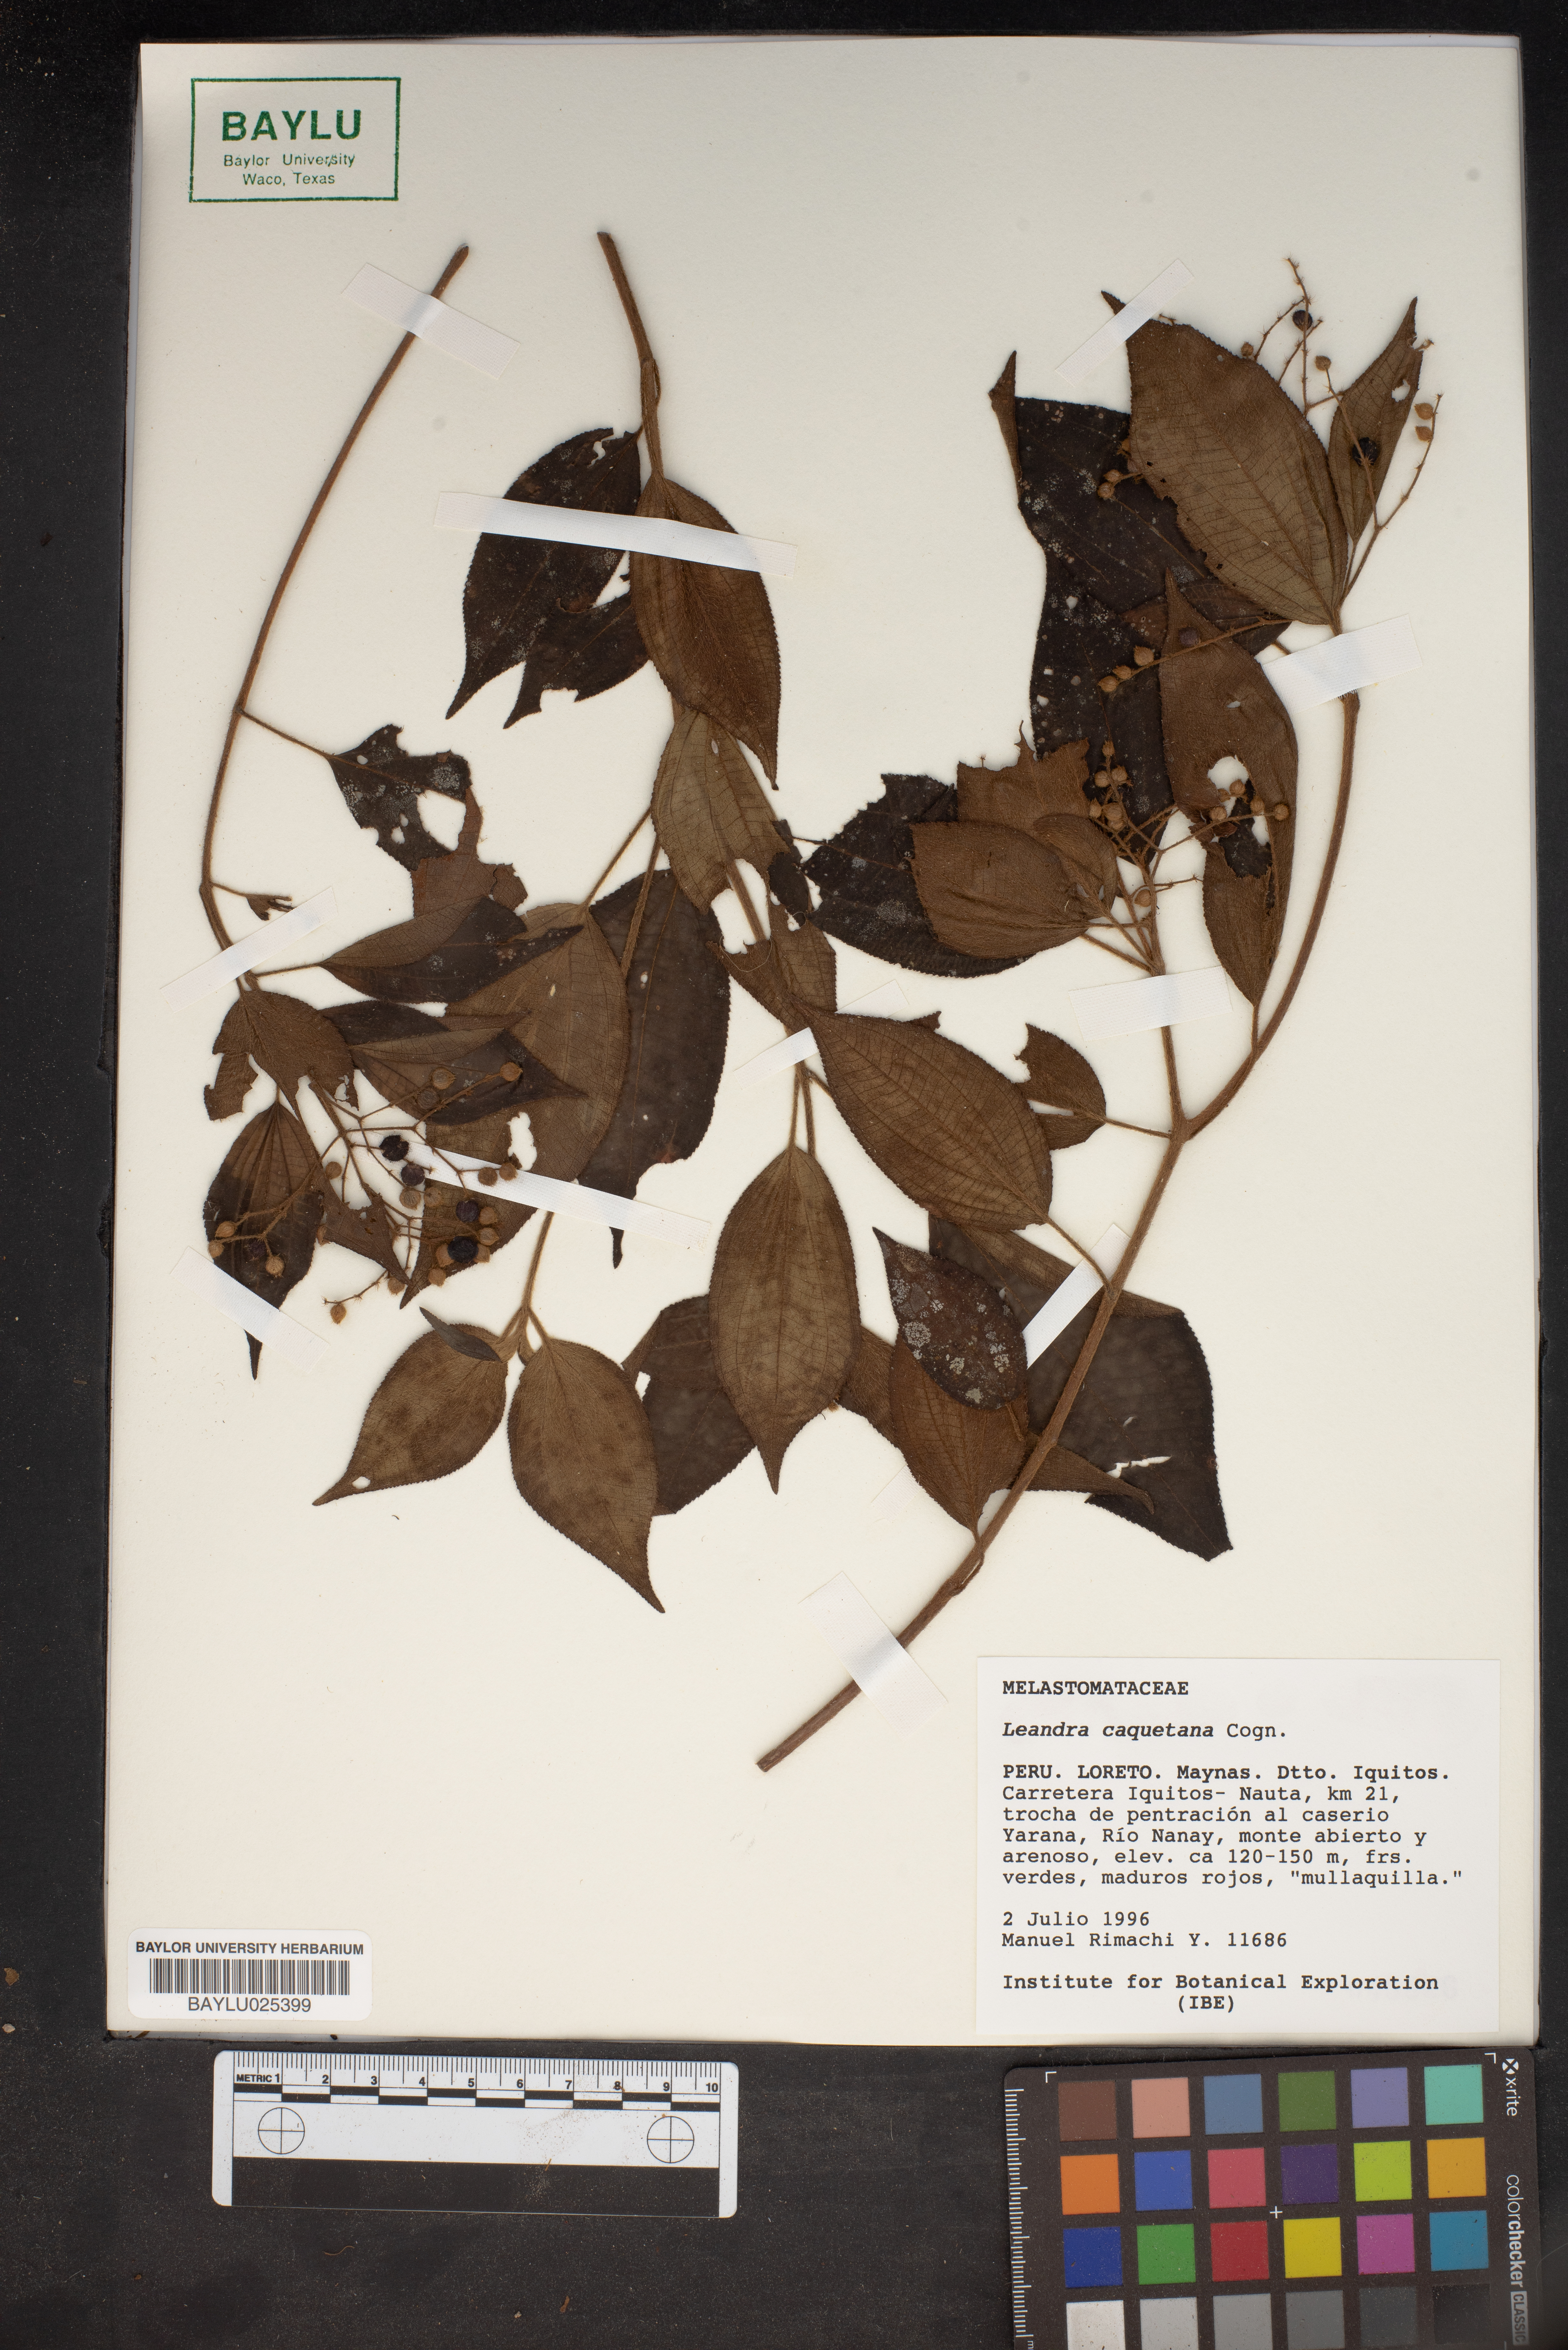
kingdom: Plantae
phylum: Tracheophyta
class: Magnoliopsida
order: Myrtales
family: Melastomataceae
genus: Miconia
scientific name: Miconia secuncaquetana
